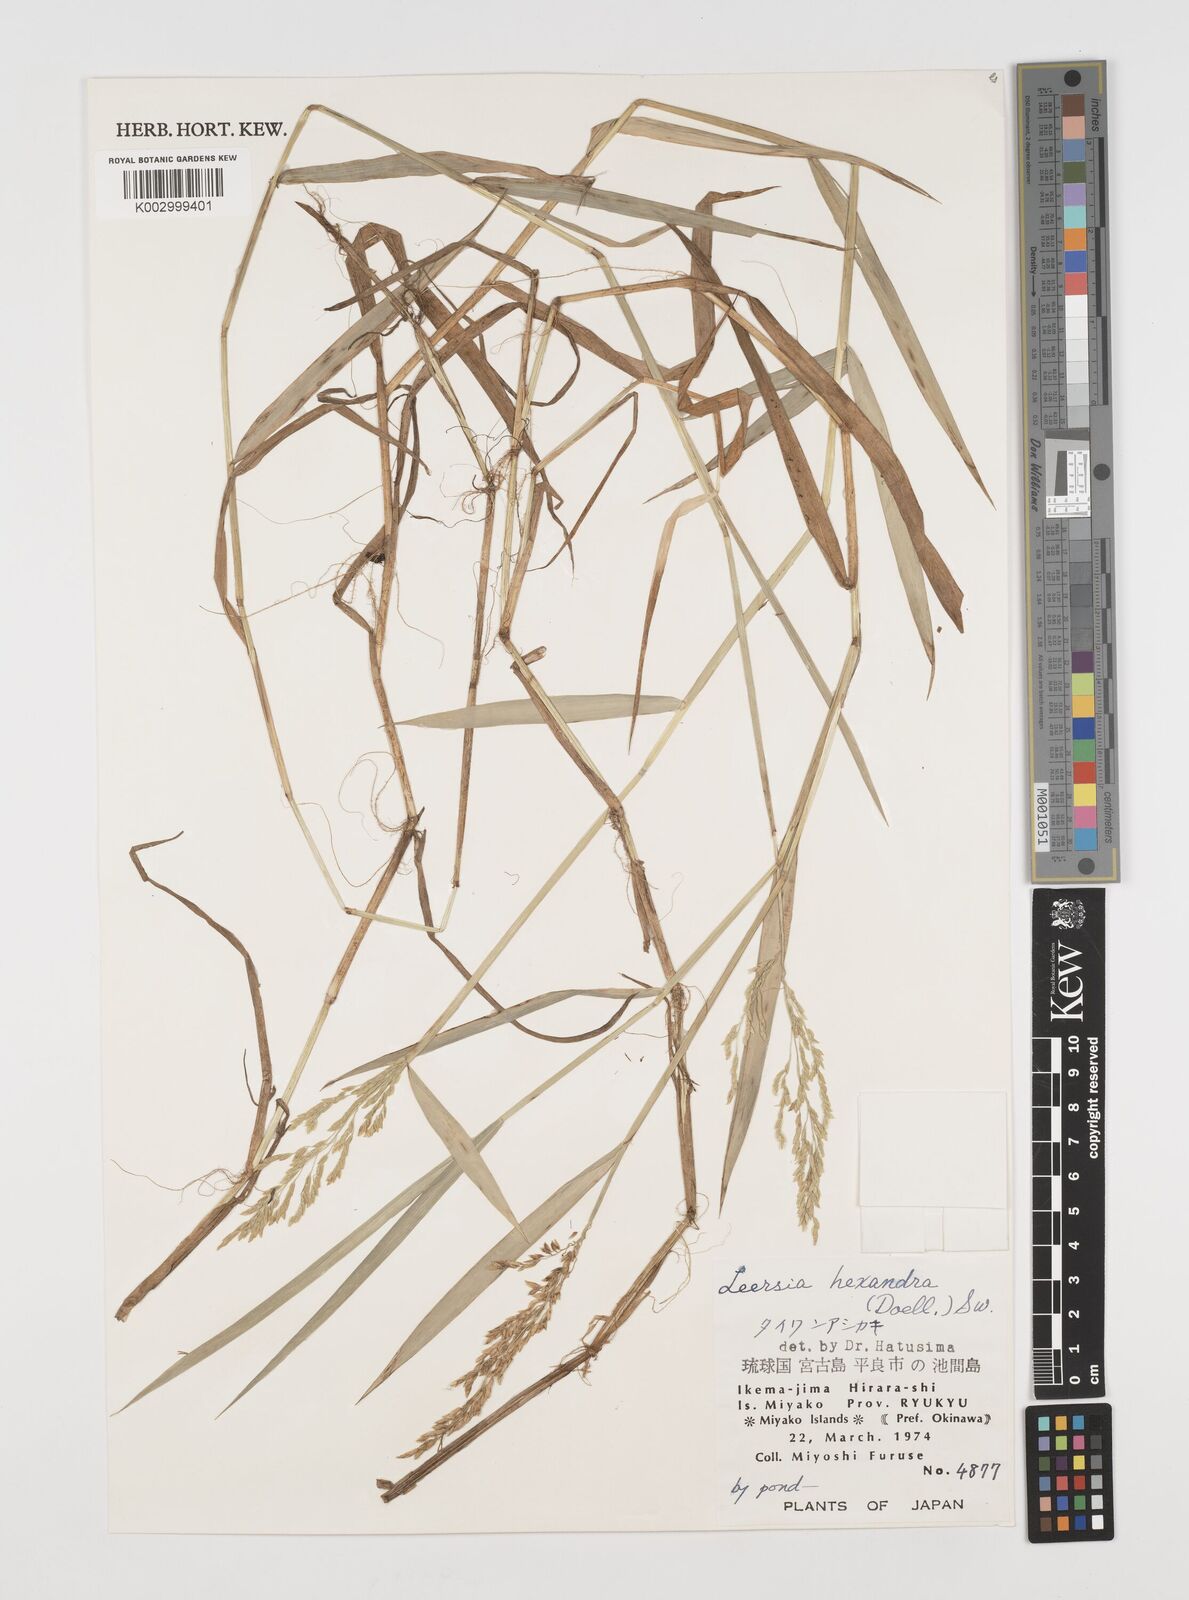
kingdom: Plantae
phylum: Tracheophyta
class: Liliopsida
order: Poales
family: Poaceae
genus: Leersia
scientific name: Leersia hexandra
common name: Southern cut grass
